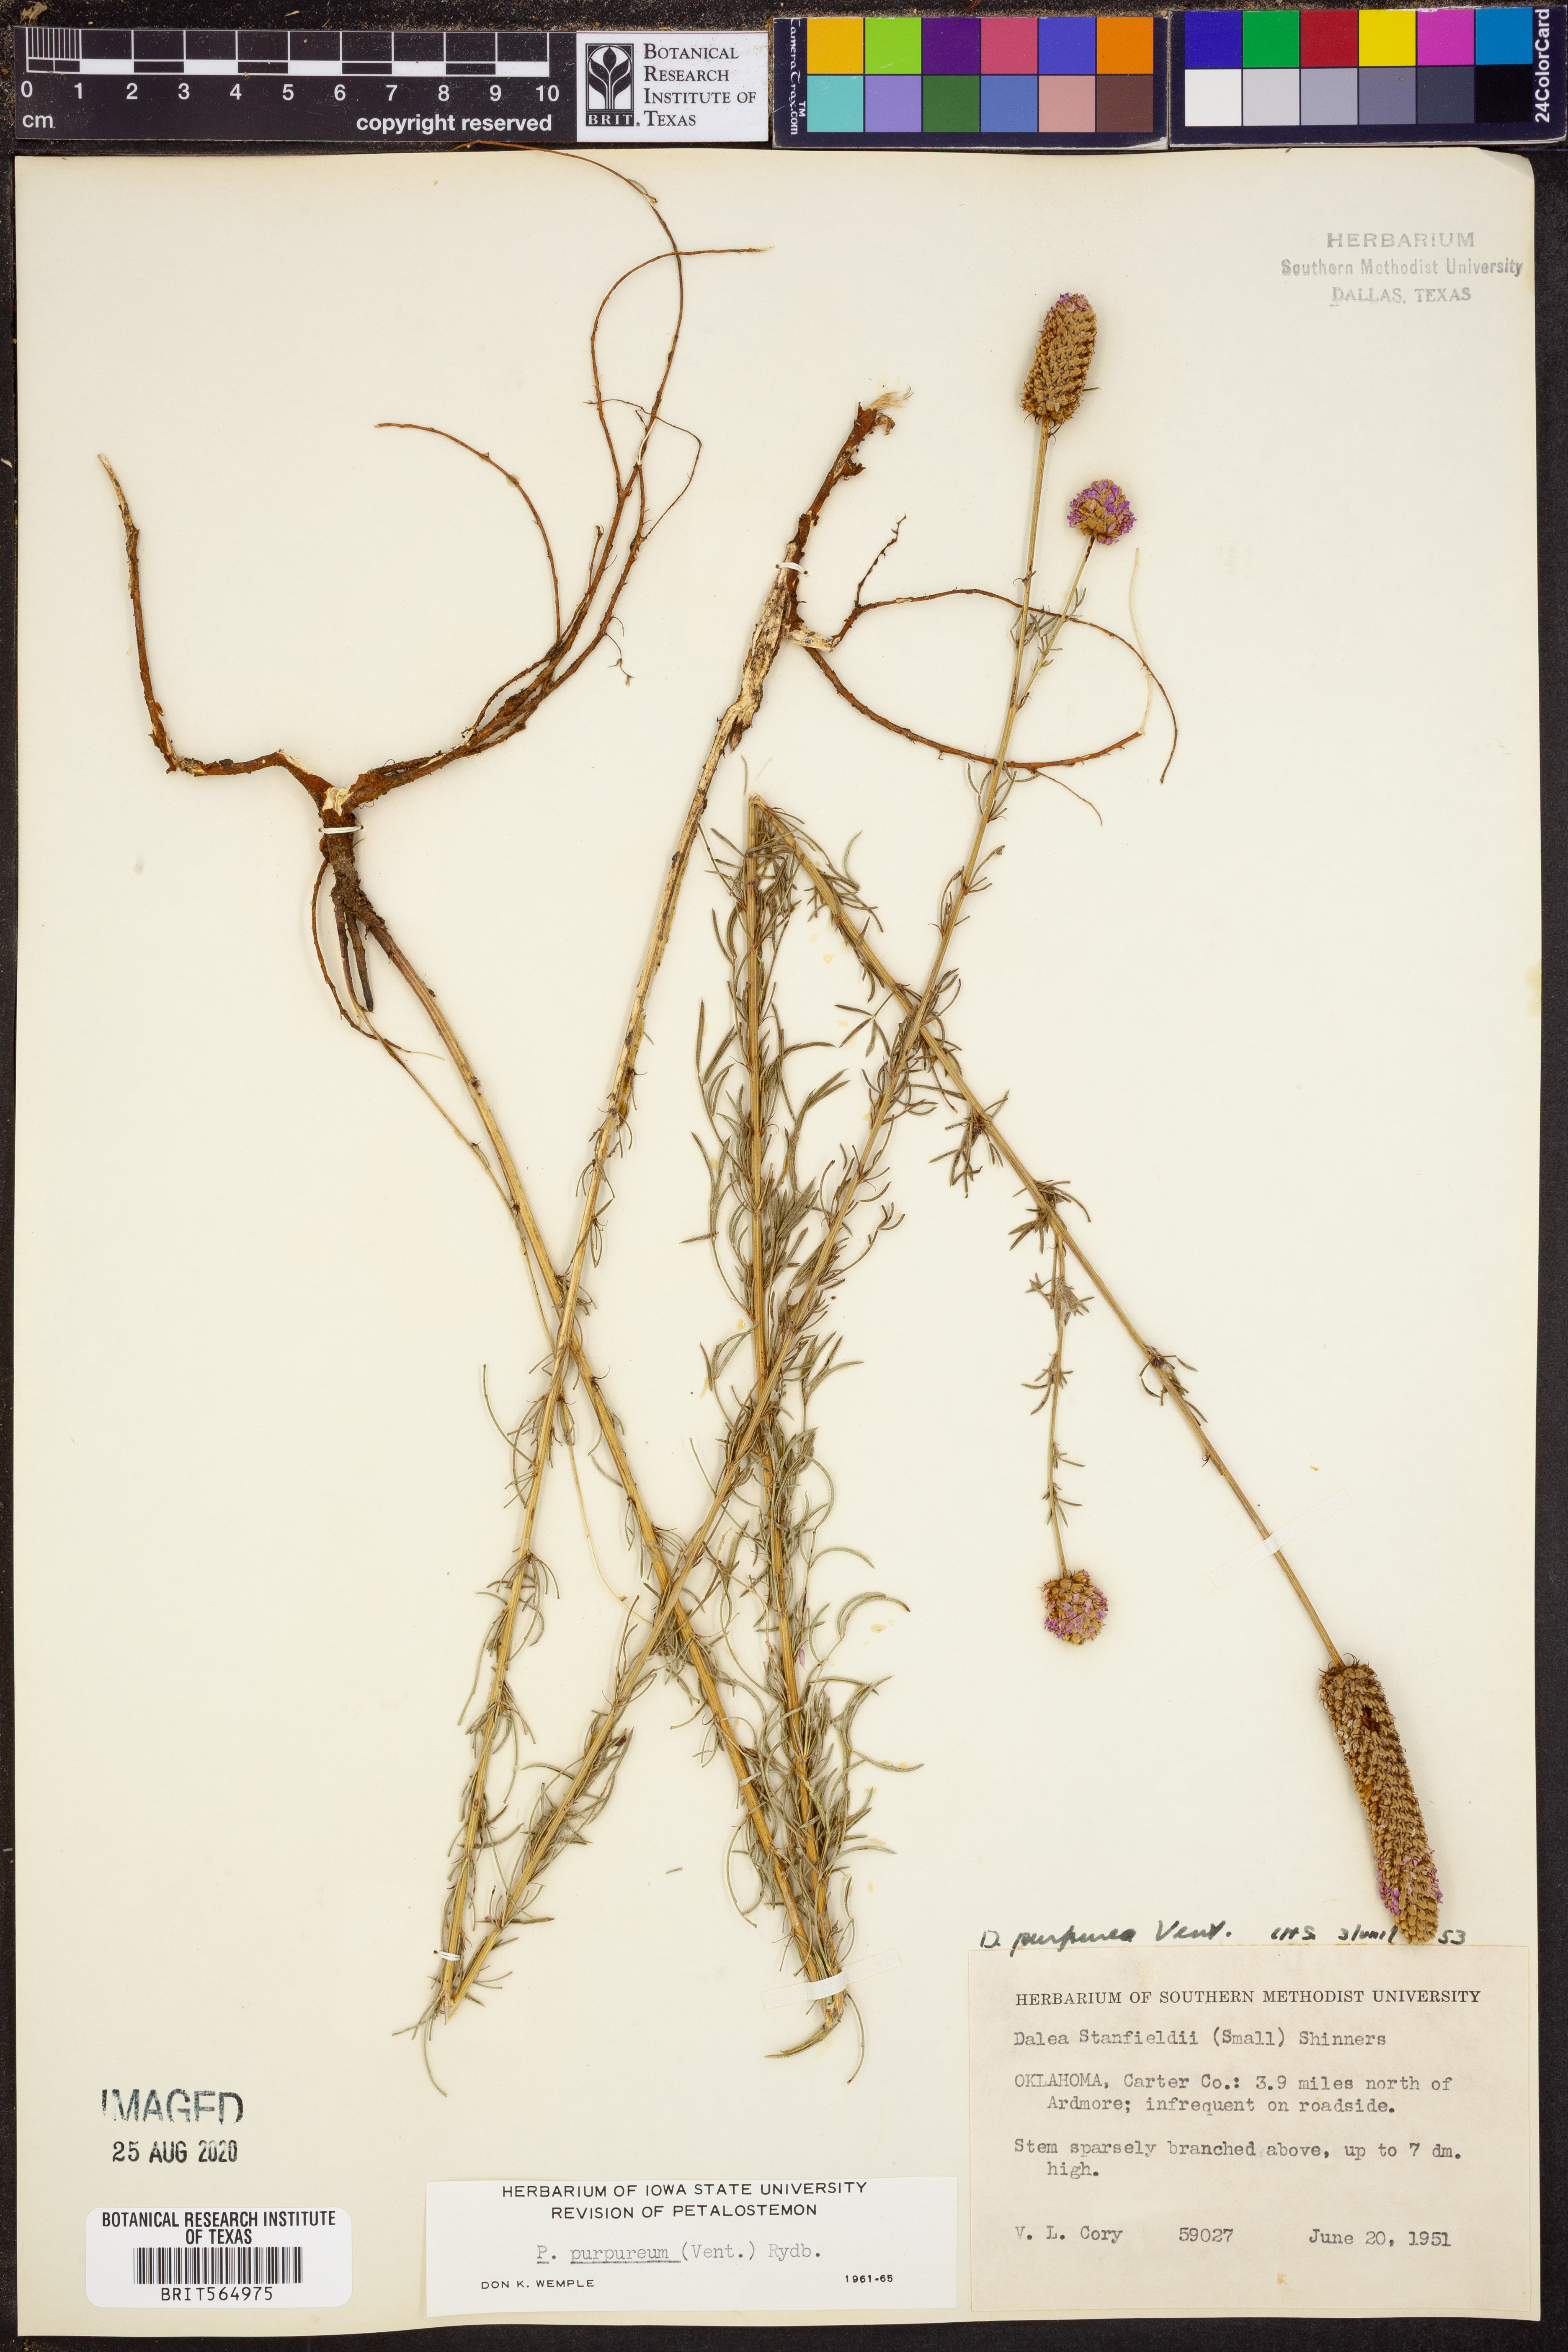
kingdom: Plantae
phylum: Tracheophyta
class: Magnoliopsida
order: Fabales
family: Fabaceae
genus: Dalea
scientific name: Dalea purpurea
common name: Purple prairie-clover
